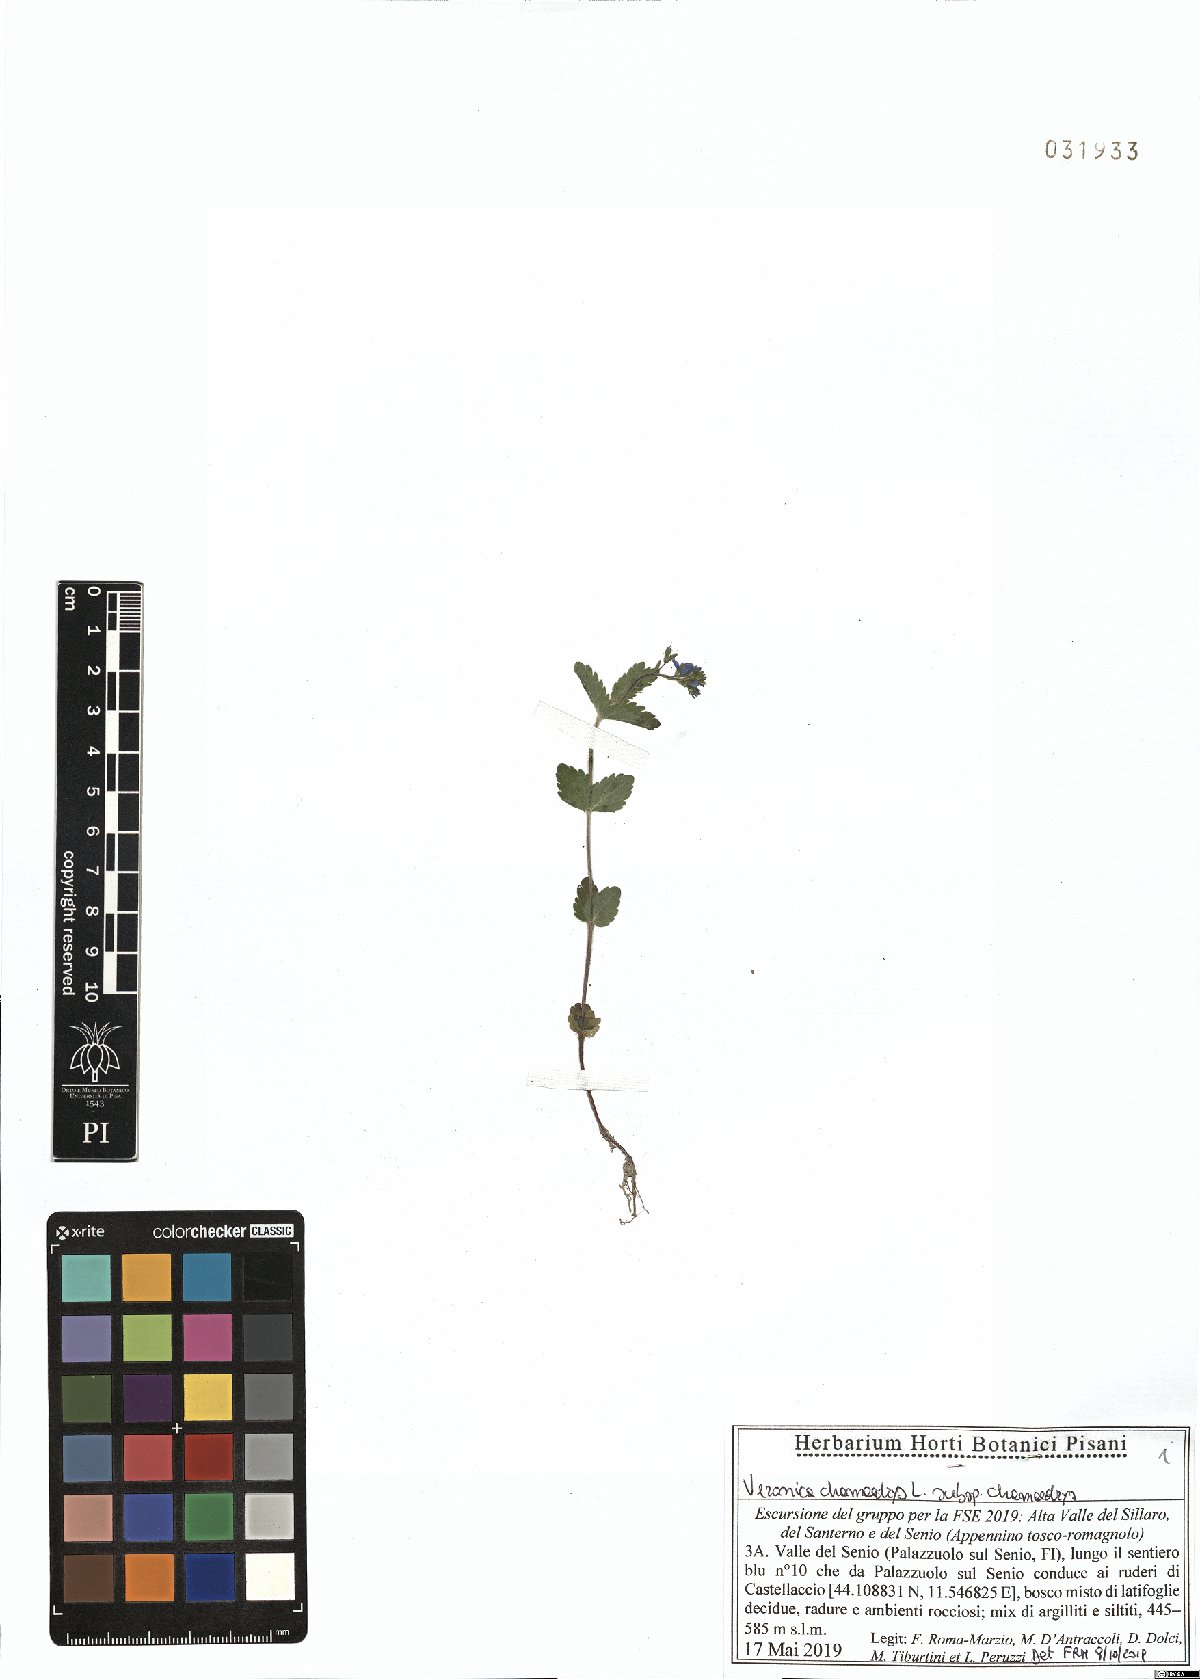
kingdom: Plantae
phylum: Tracheophyta
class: Magnoliopsida
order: Lamiales
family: Plantaginaceae
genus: Veronica
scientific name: Veronica chamaedrys
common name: Germander speedwell
